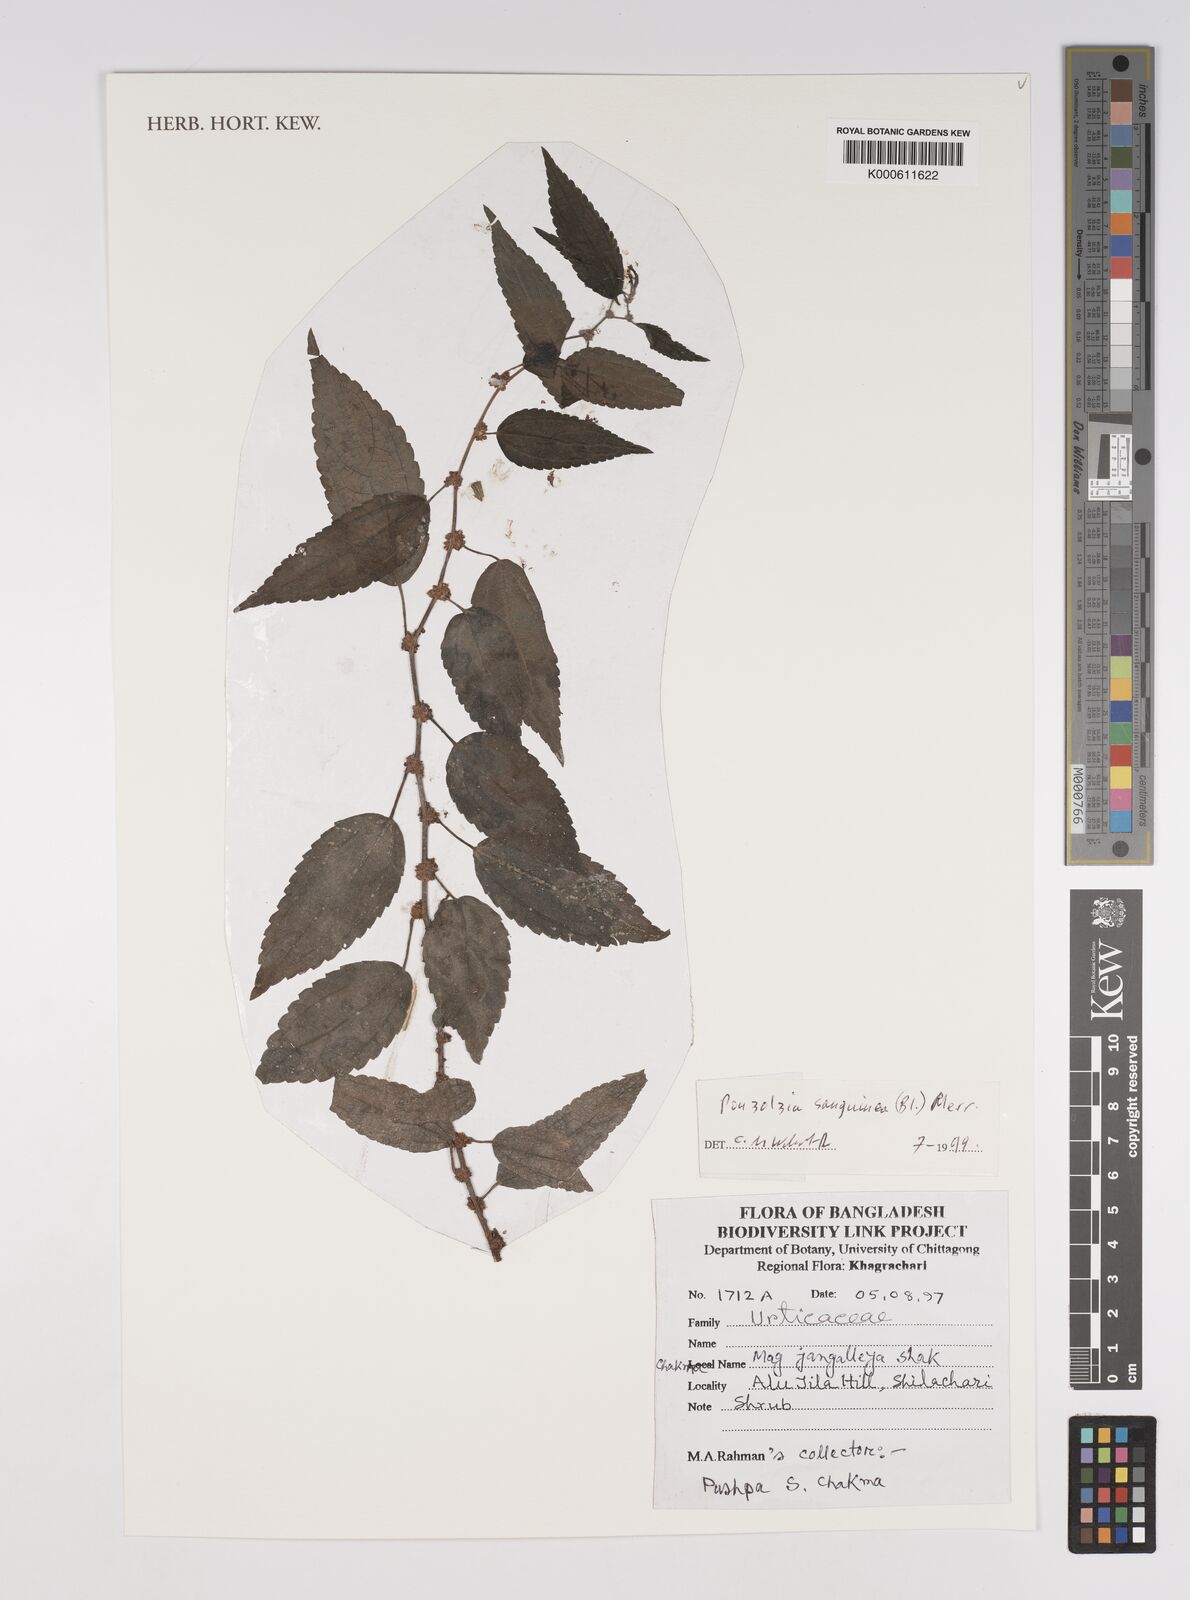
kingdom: Plantae
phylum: Tracheophyta
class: Magnoliopsida
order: Rosales
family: Urticaceae
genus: Boehmeria
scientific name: Boehmeria
